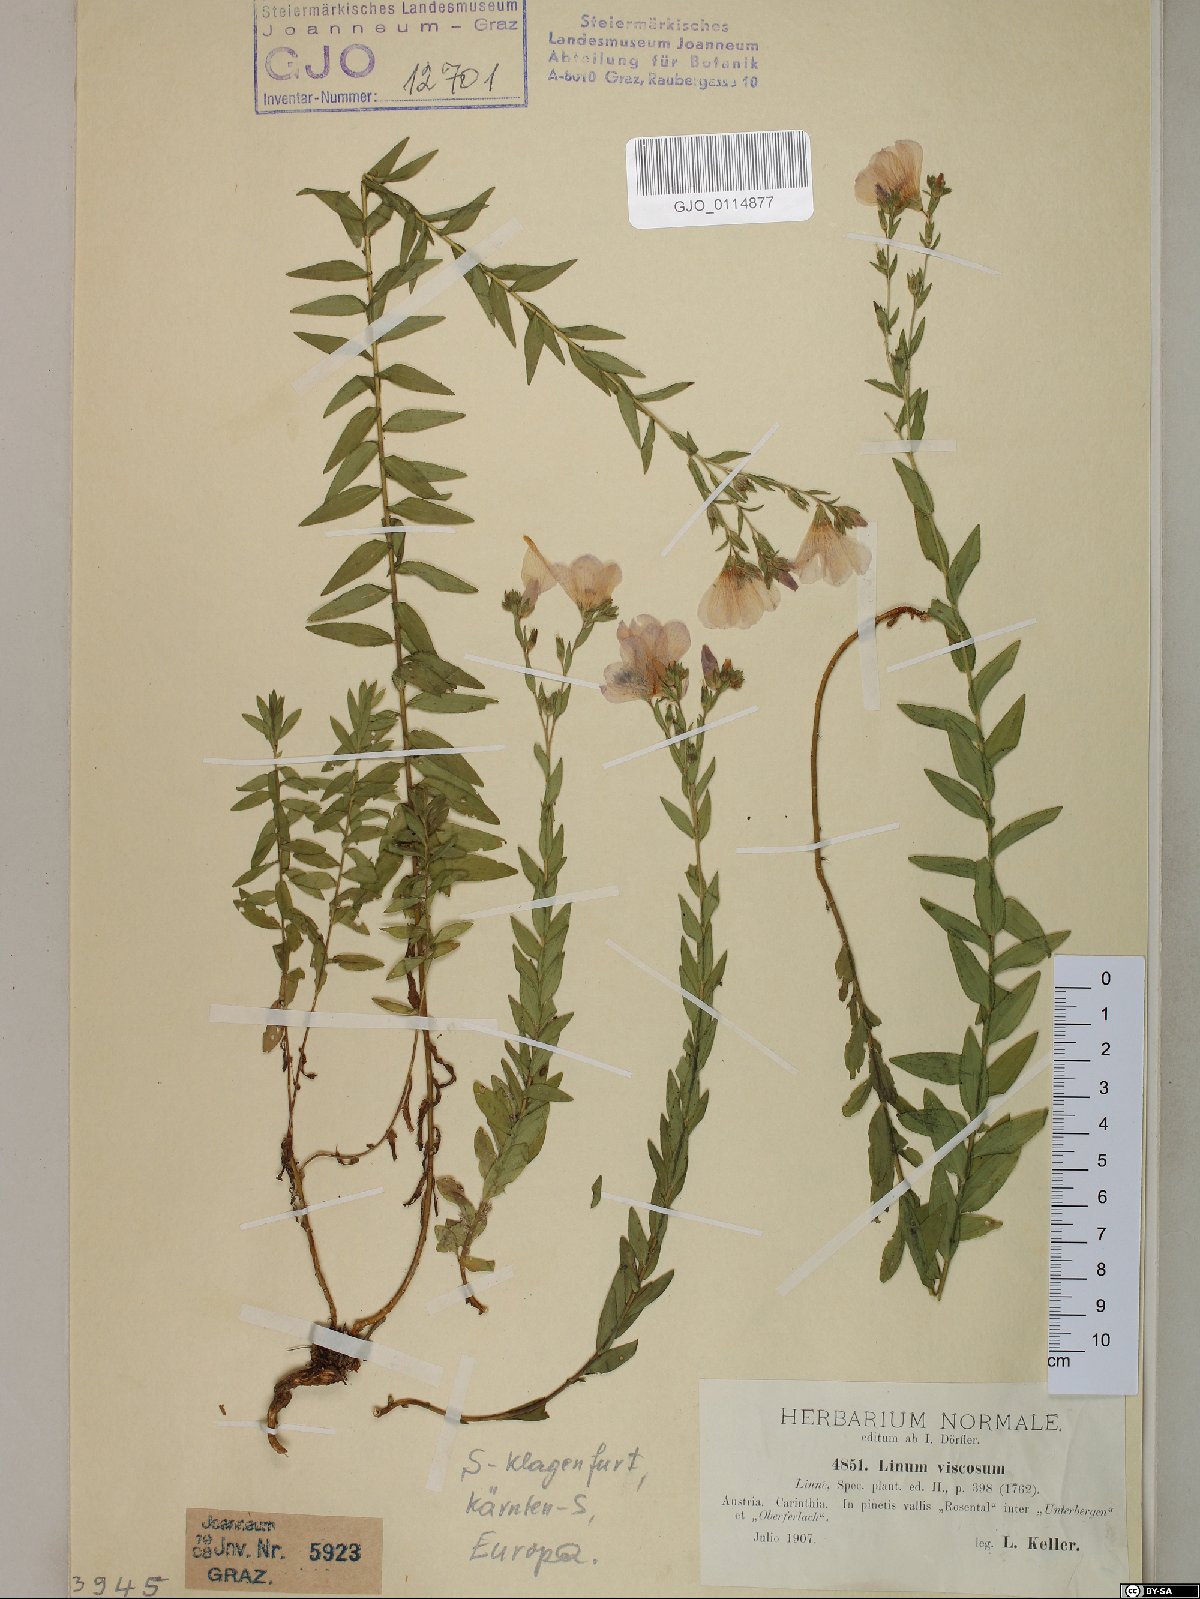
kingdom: Plantae
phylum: Tracheophyta
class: Magnoliopsida
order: Malpighiales
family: Linaceae
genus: Linum
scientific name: Linum viscosum
